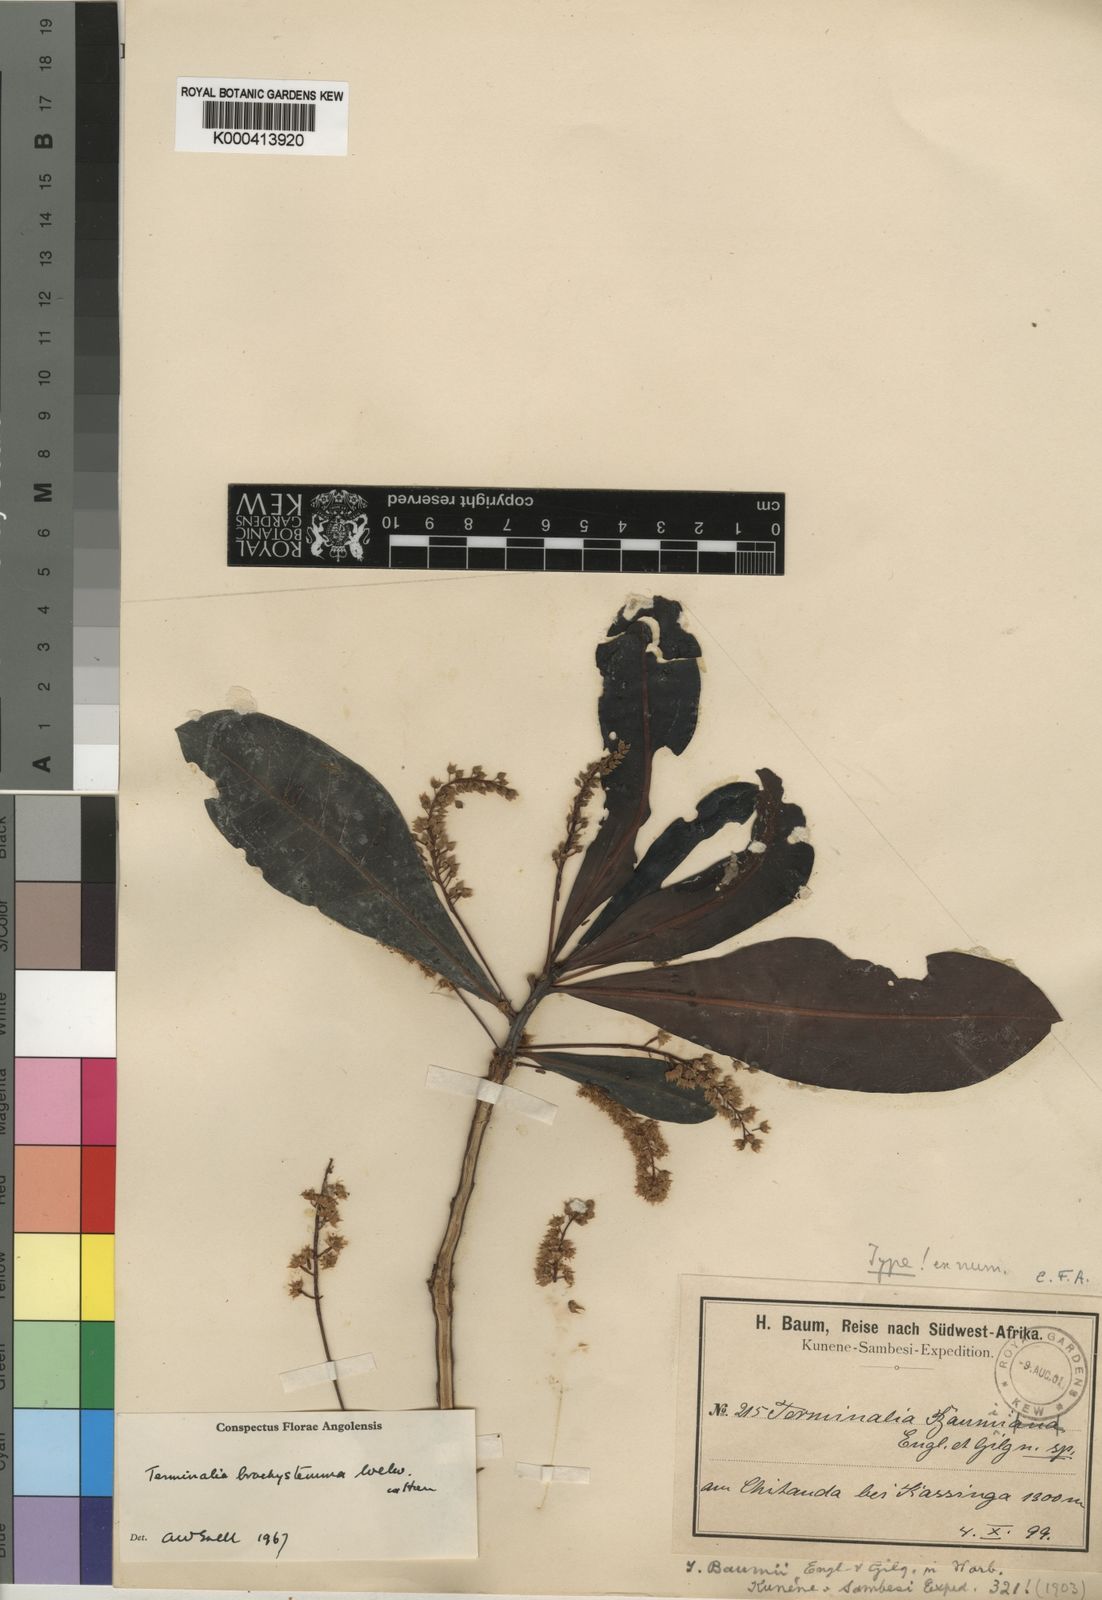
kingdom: Plantae
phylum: Tracheophyta
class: Magnoliopsida
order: Myrtales
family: Combretaceae
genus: Terminalia
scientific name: Terminalia brachystemma
